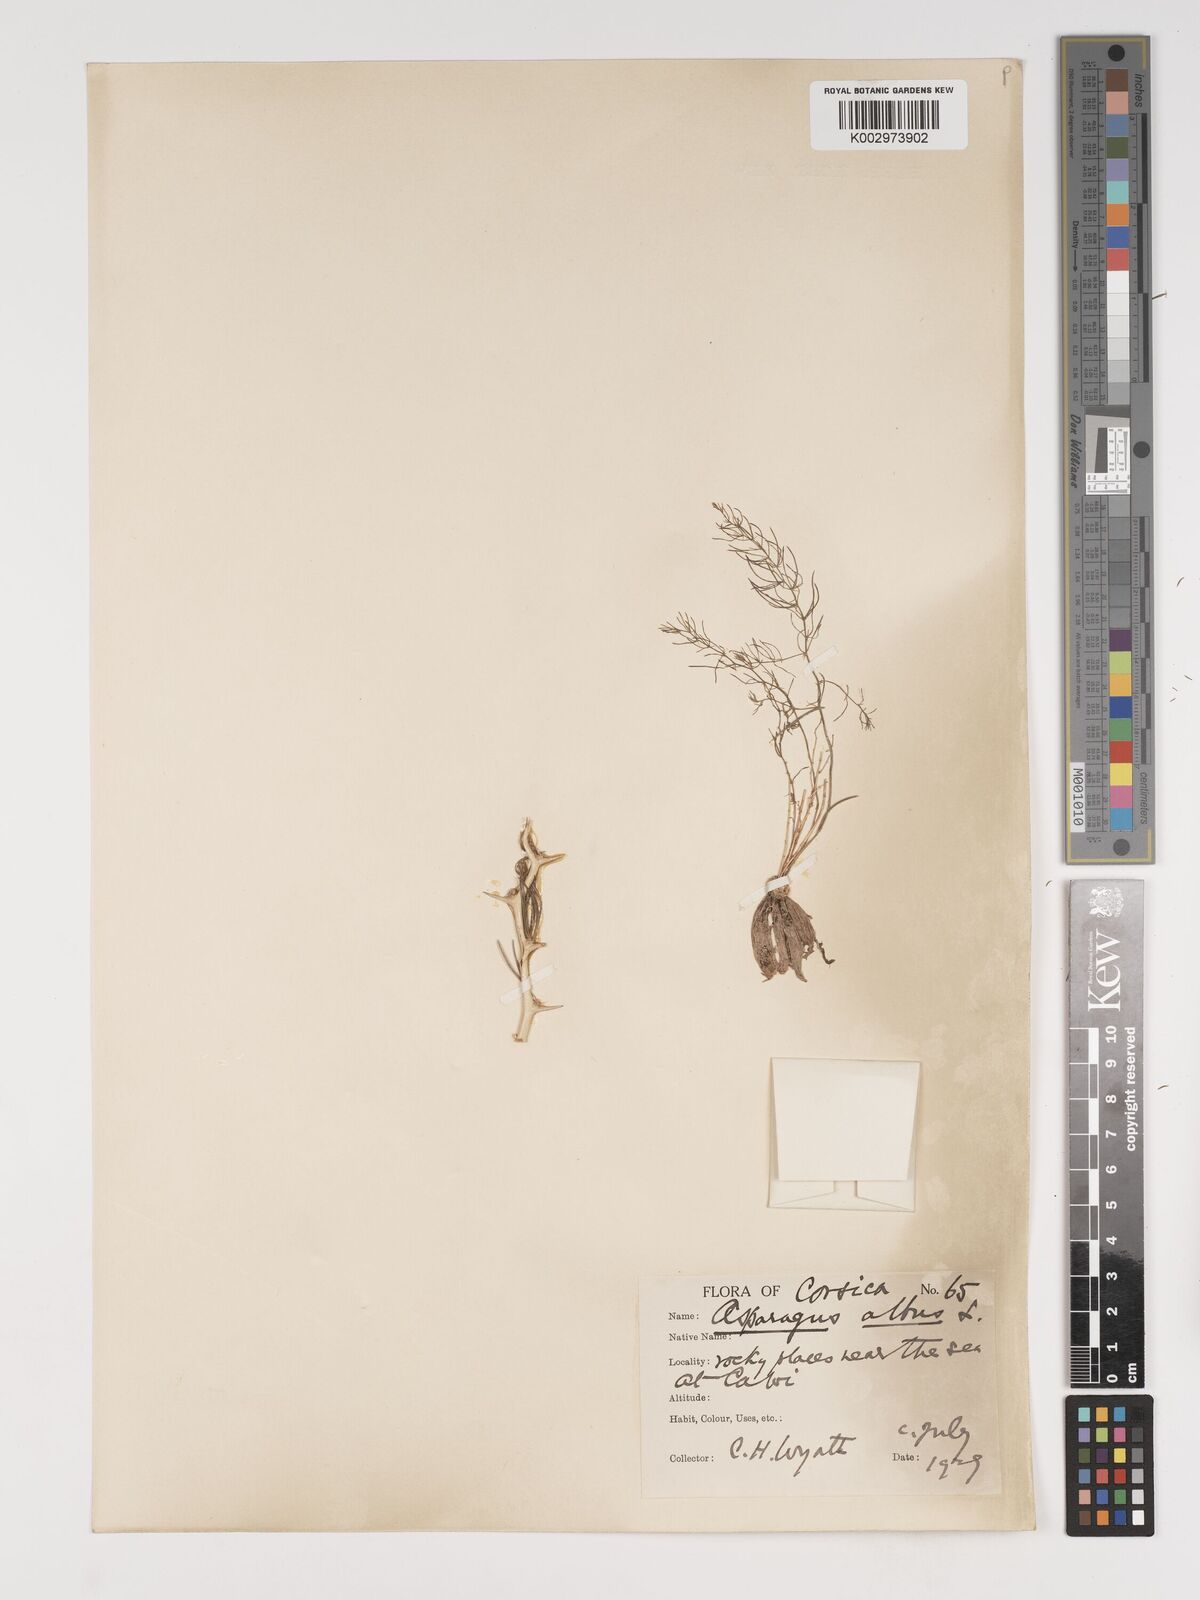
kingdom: Plantae
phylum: Tracheophyta
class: Liliopsida
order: Asparagales
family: Asparagaceae
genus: Asparagus
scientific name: Asparagus albus
